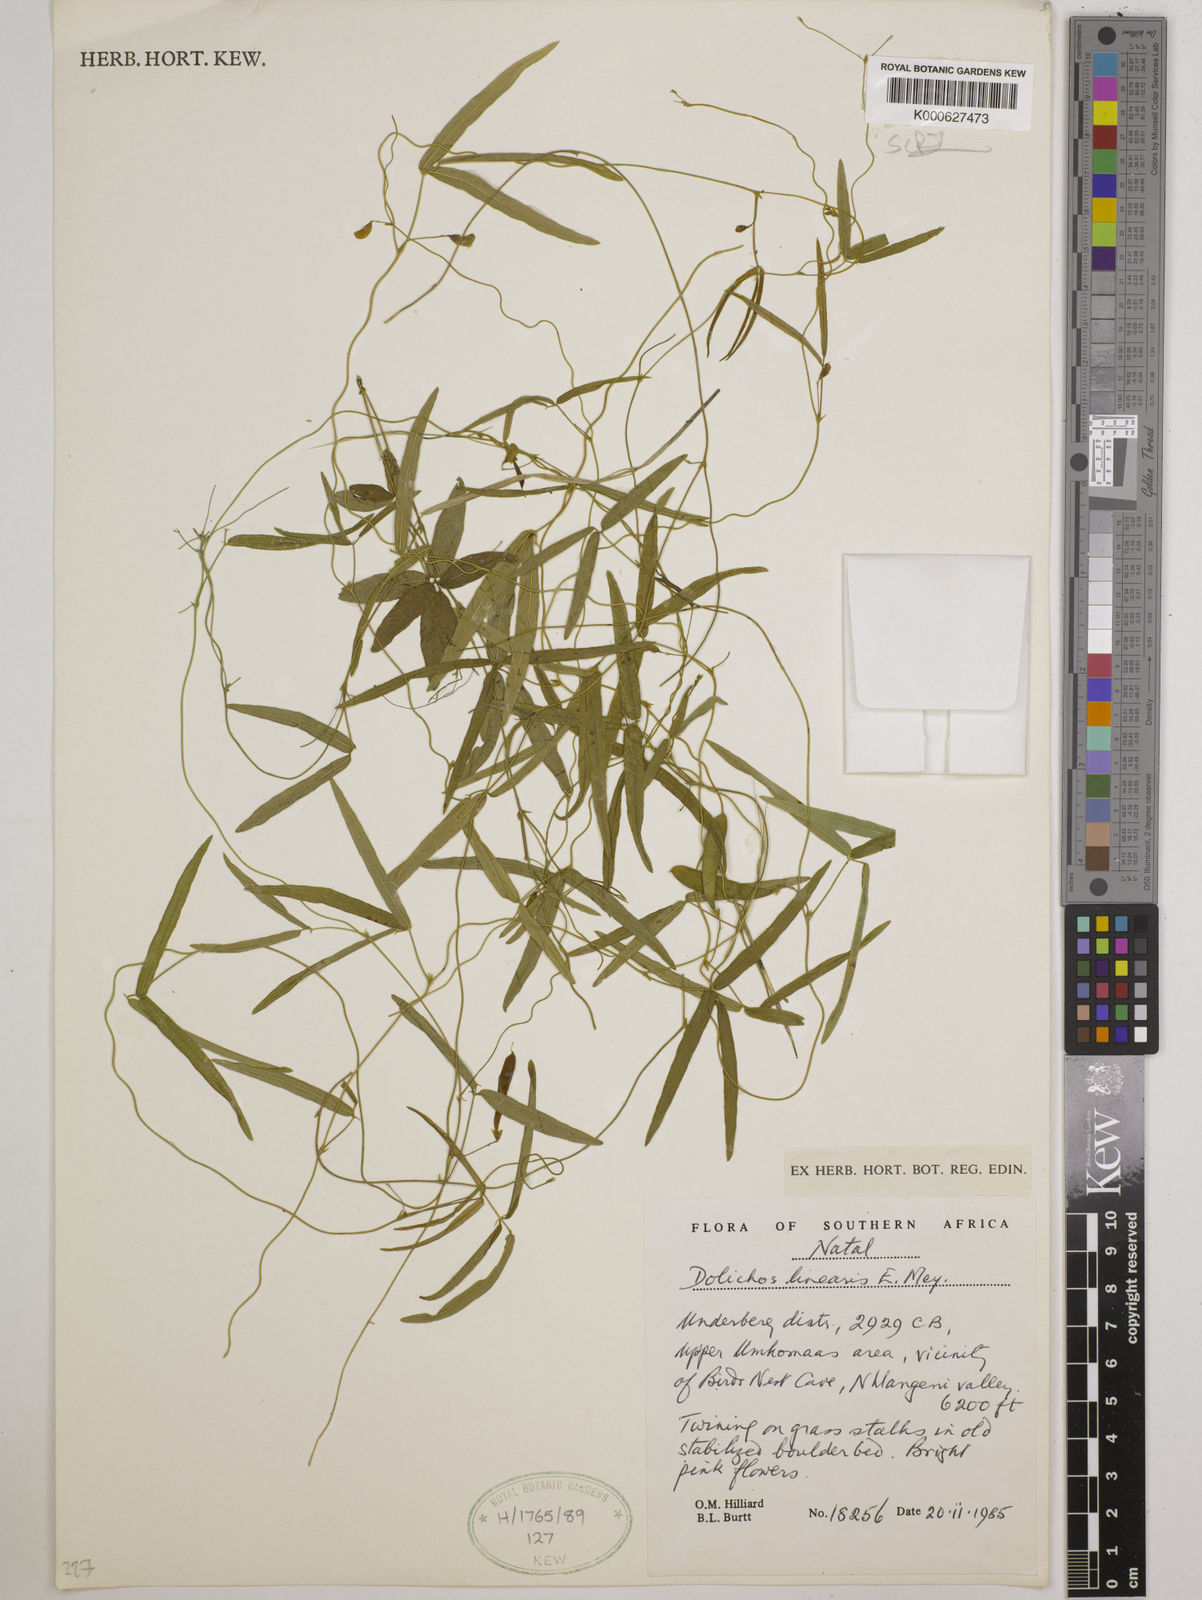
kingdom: Plantae
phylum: Tracheophyta
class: Magnoliopsida
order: Fabales
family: Fabaceae
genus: Dolichos
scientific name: Dolichos linearis
